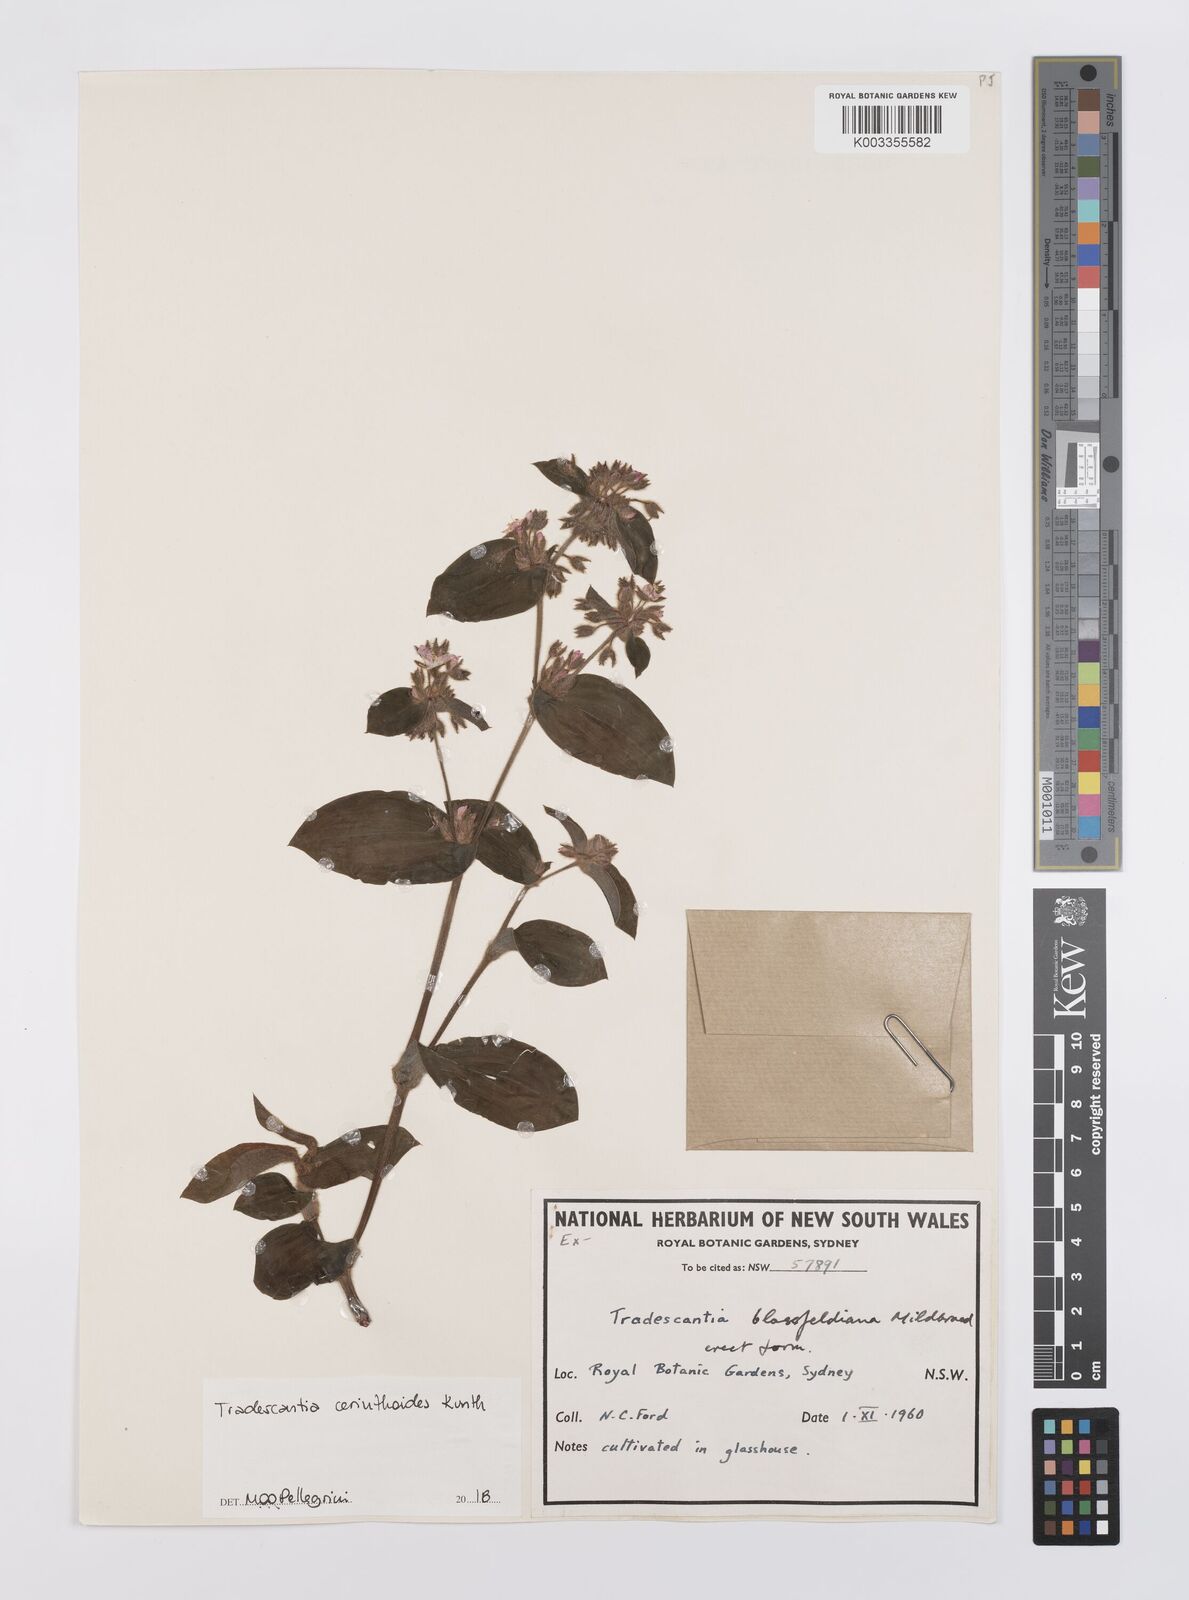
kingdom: Plantae
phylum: Tracheophyta
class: Liliopsida
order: Commelinales
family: Commelinaceae
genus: Tradescantia
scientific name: Tradescantia cerinthoides
